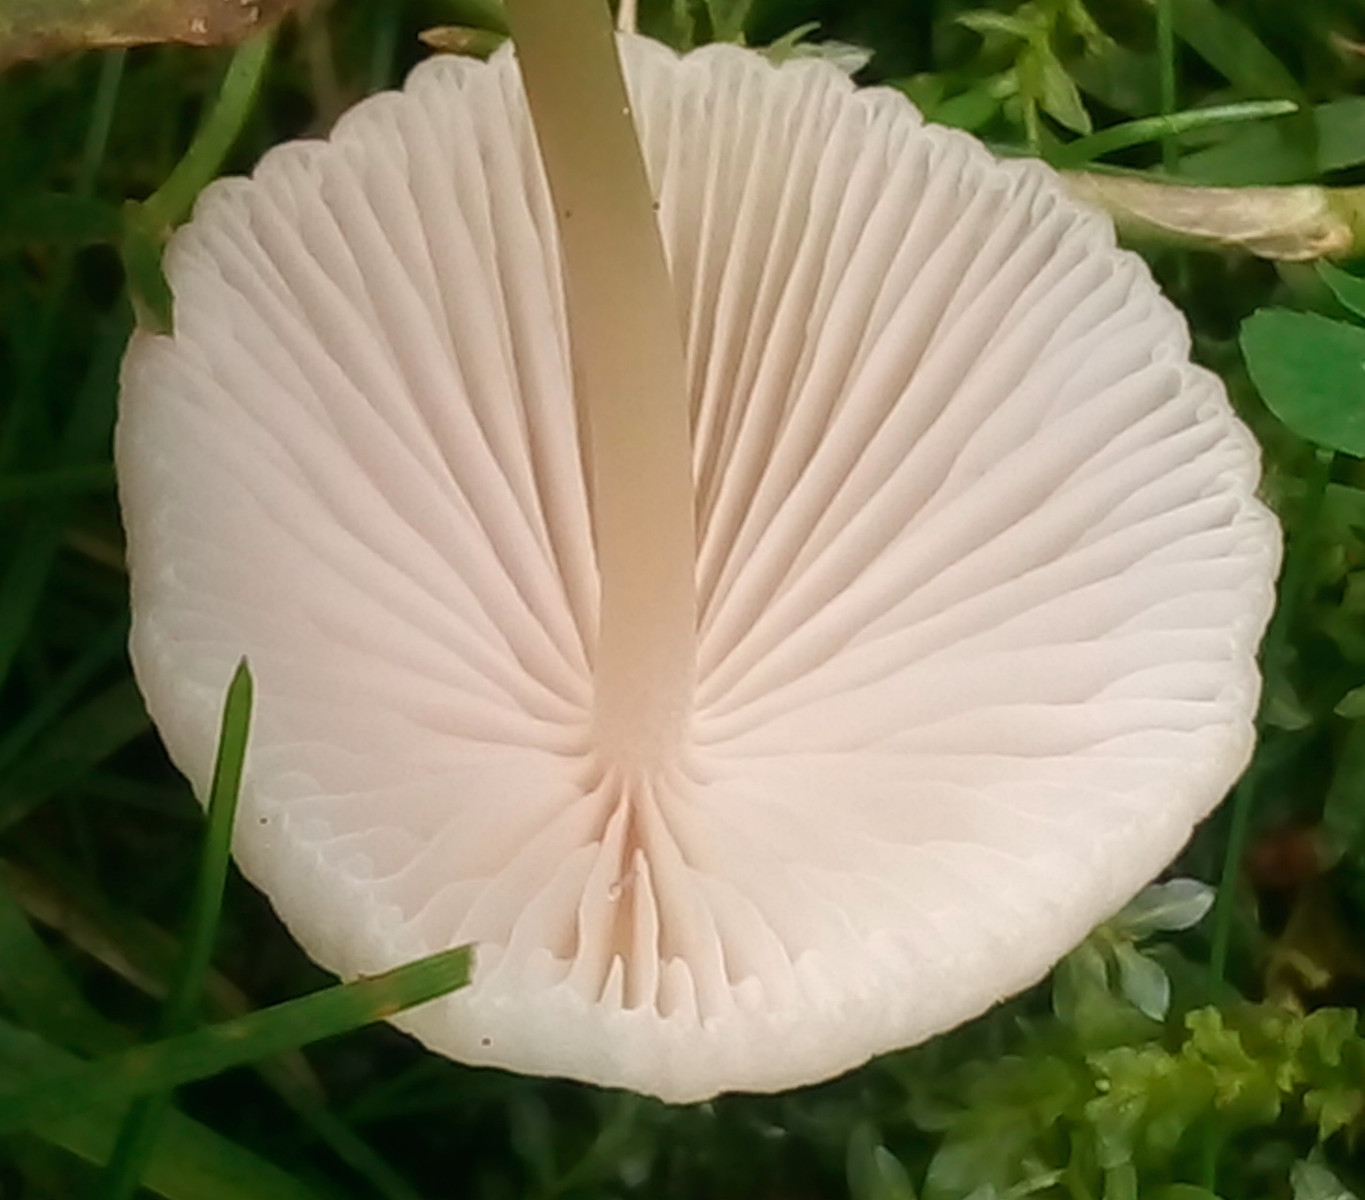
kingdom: Fungi
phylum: Basidiomycota
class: Agaricomycetes
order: Agaricales
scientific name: Agaricales
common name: champignonordenen
